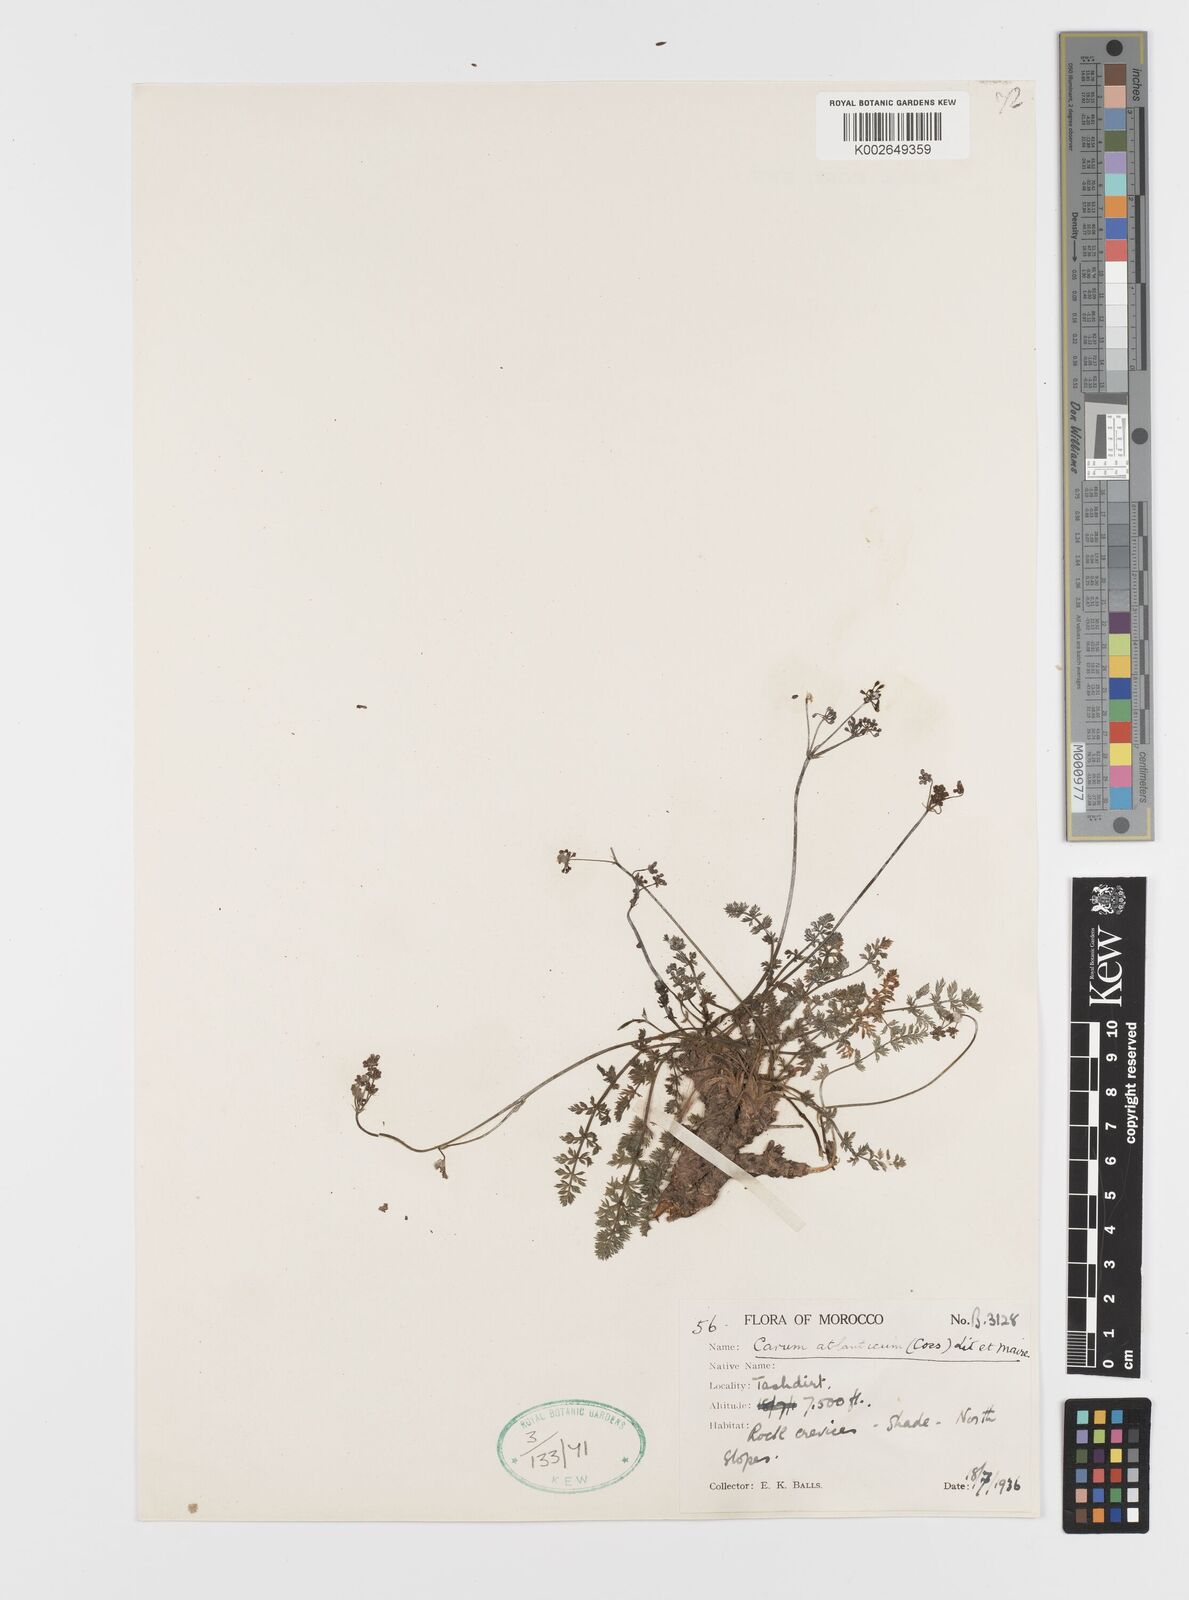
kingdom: Plantae
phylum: Tracheophyta
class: Magnoliopsida
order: Apiales
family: Apiaceae
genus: Bunium
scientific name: Bunium macuca
